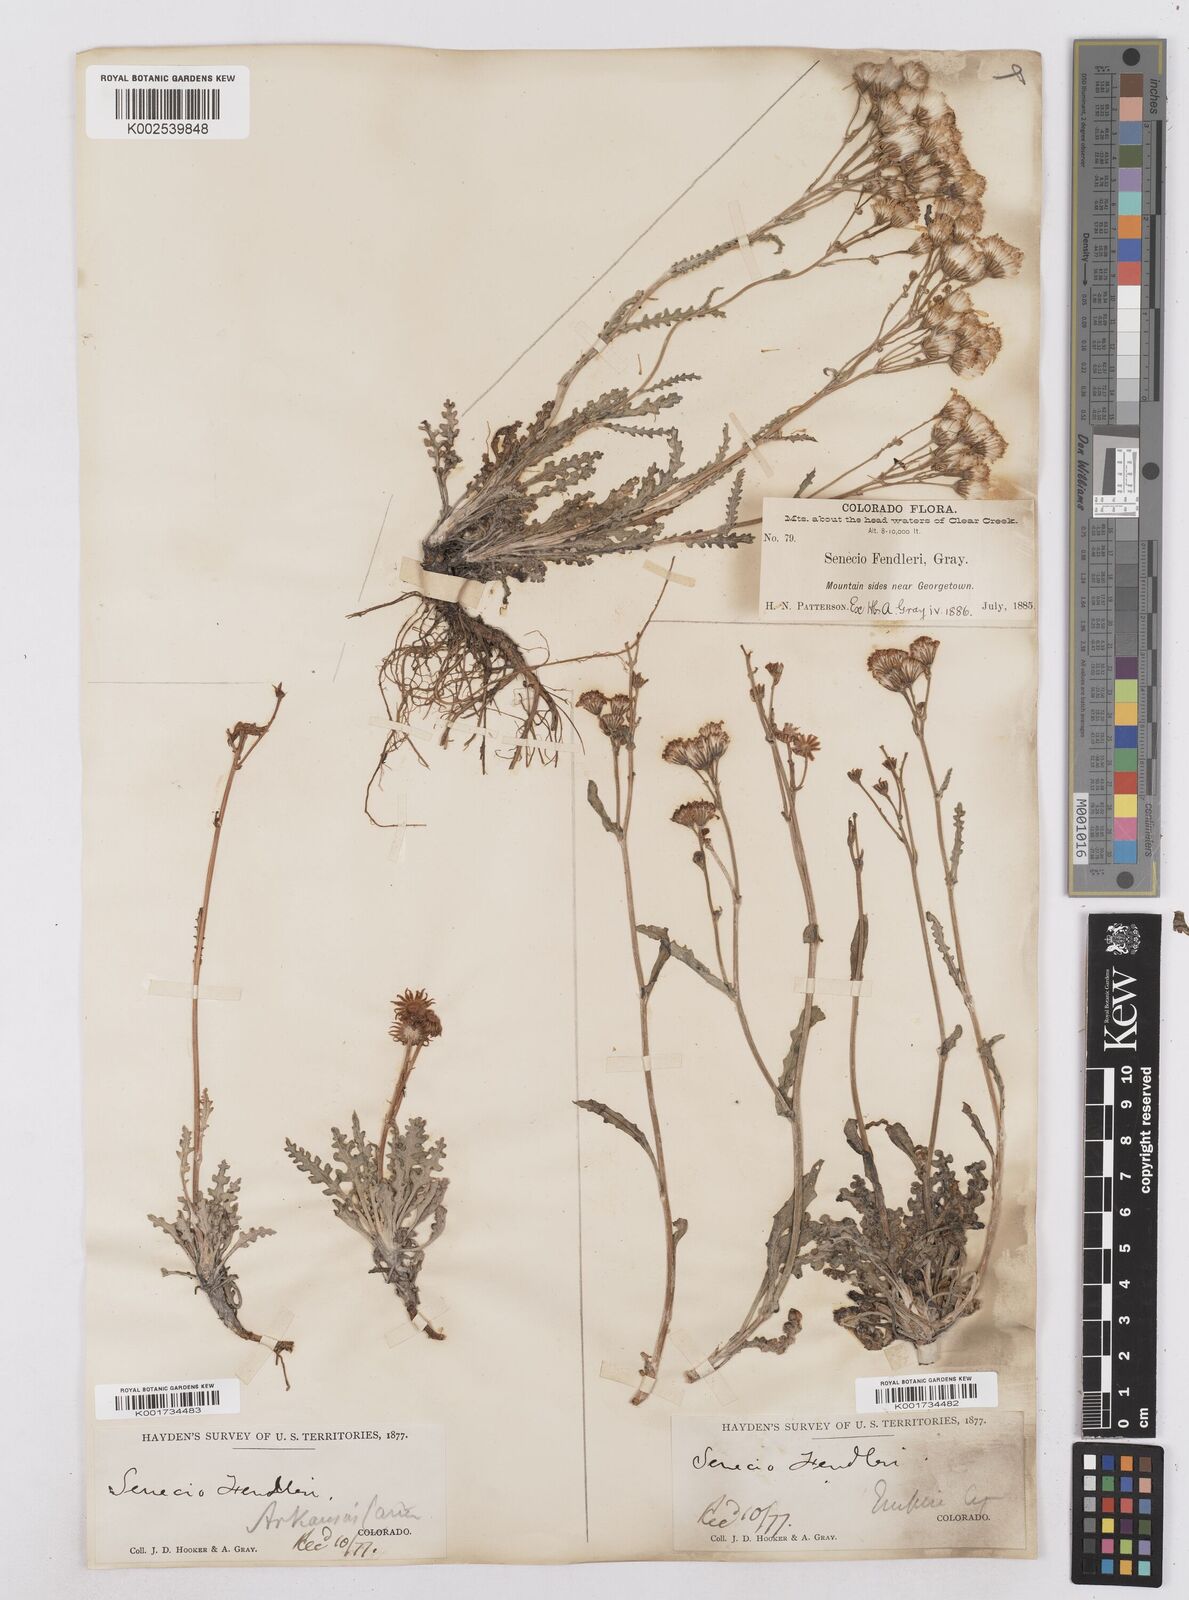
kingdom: Plantae
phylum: Tracheophyta
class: Magnoliopsida
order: Asterales
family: Asteraceae
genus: Packera
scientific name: Packera fendleri
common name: Notch-leaf butterweed
